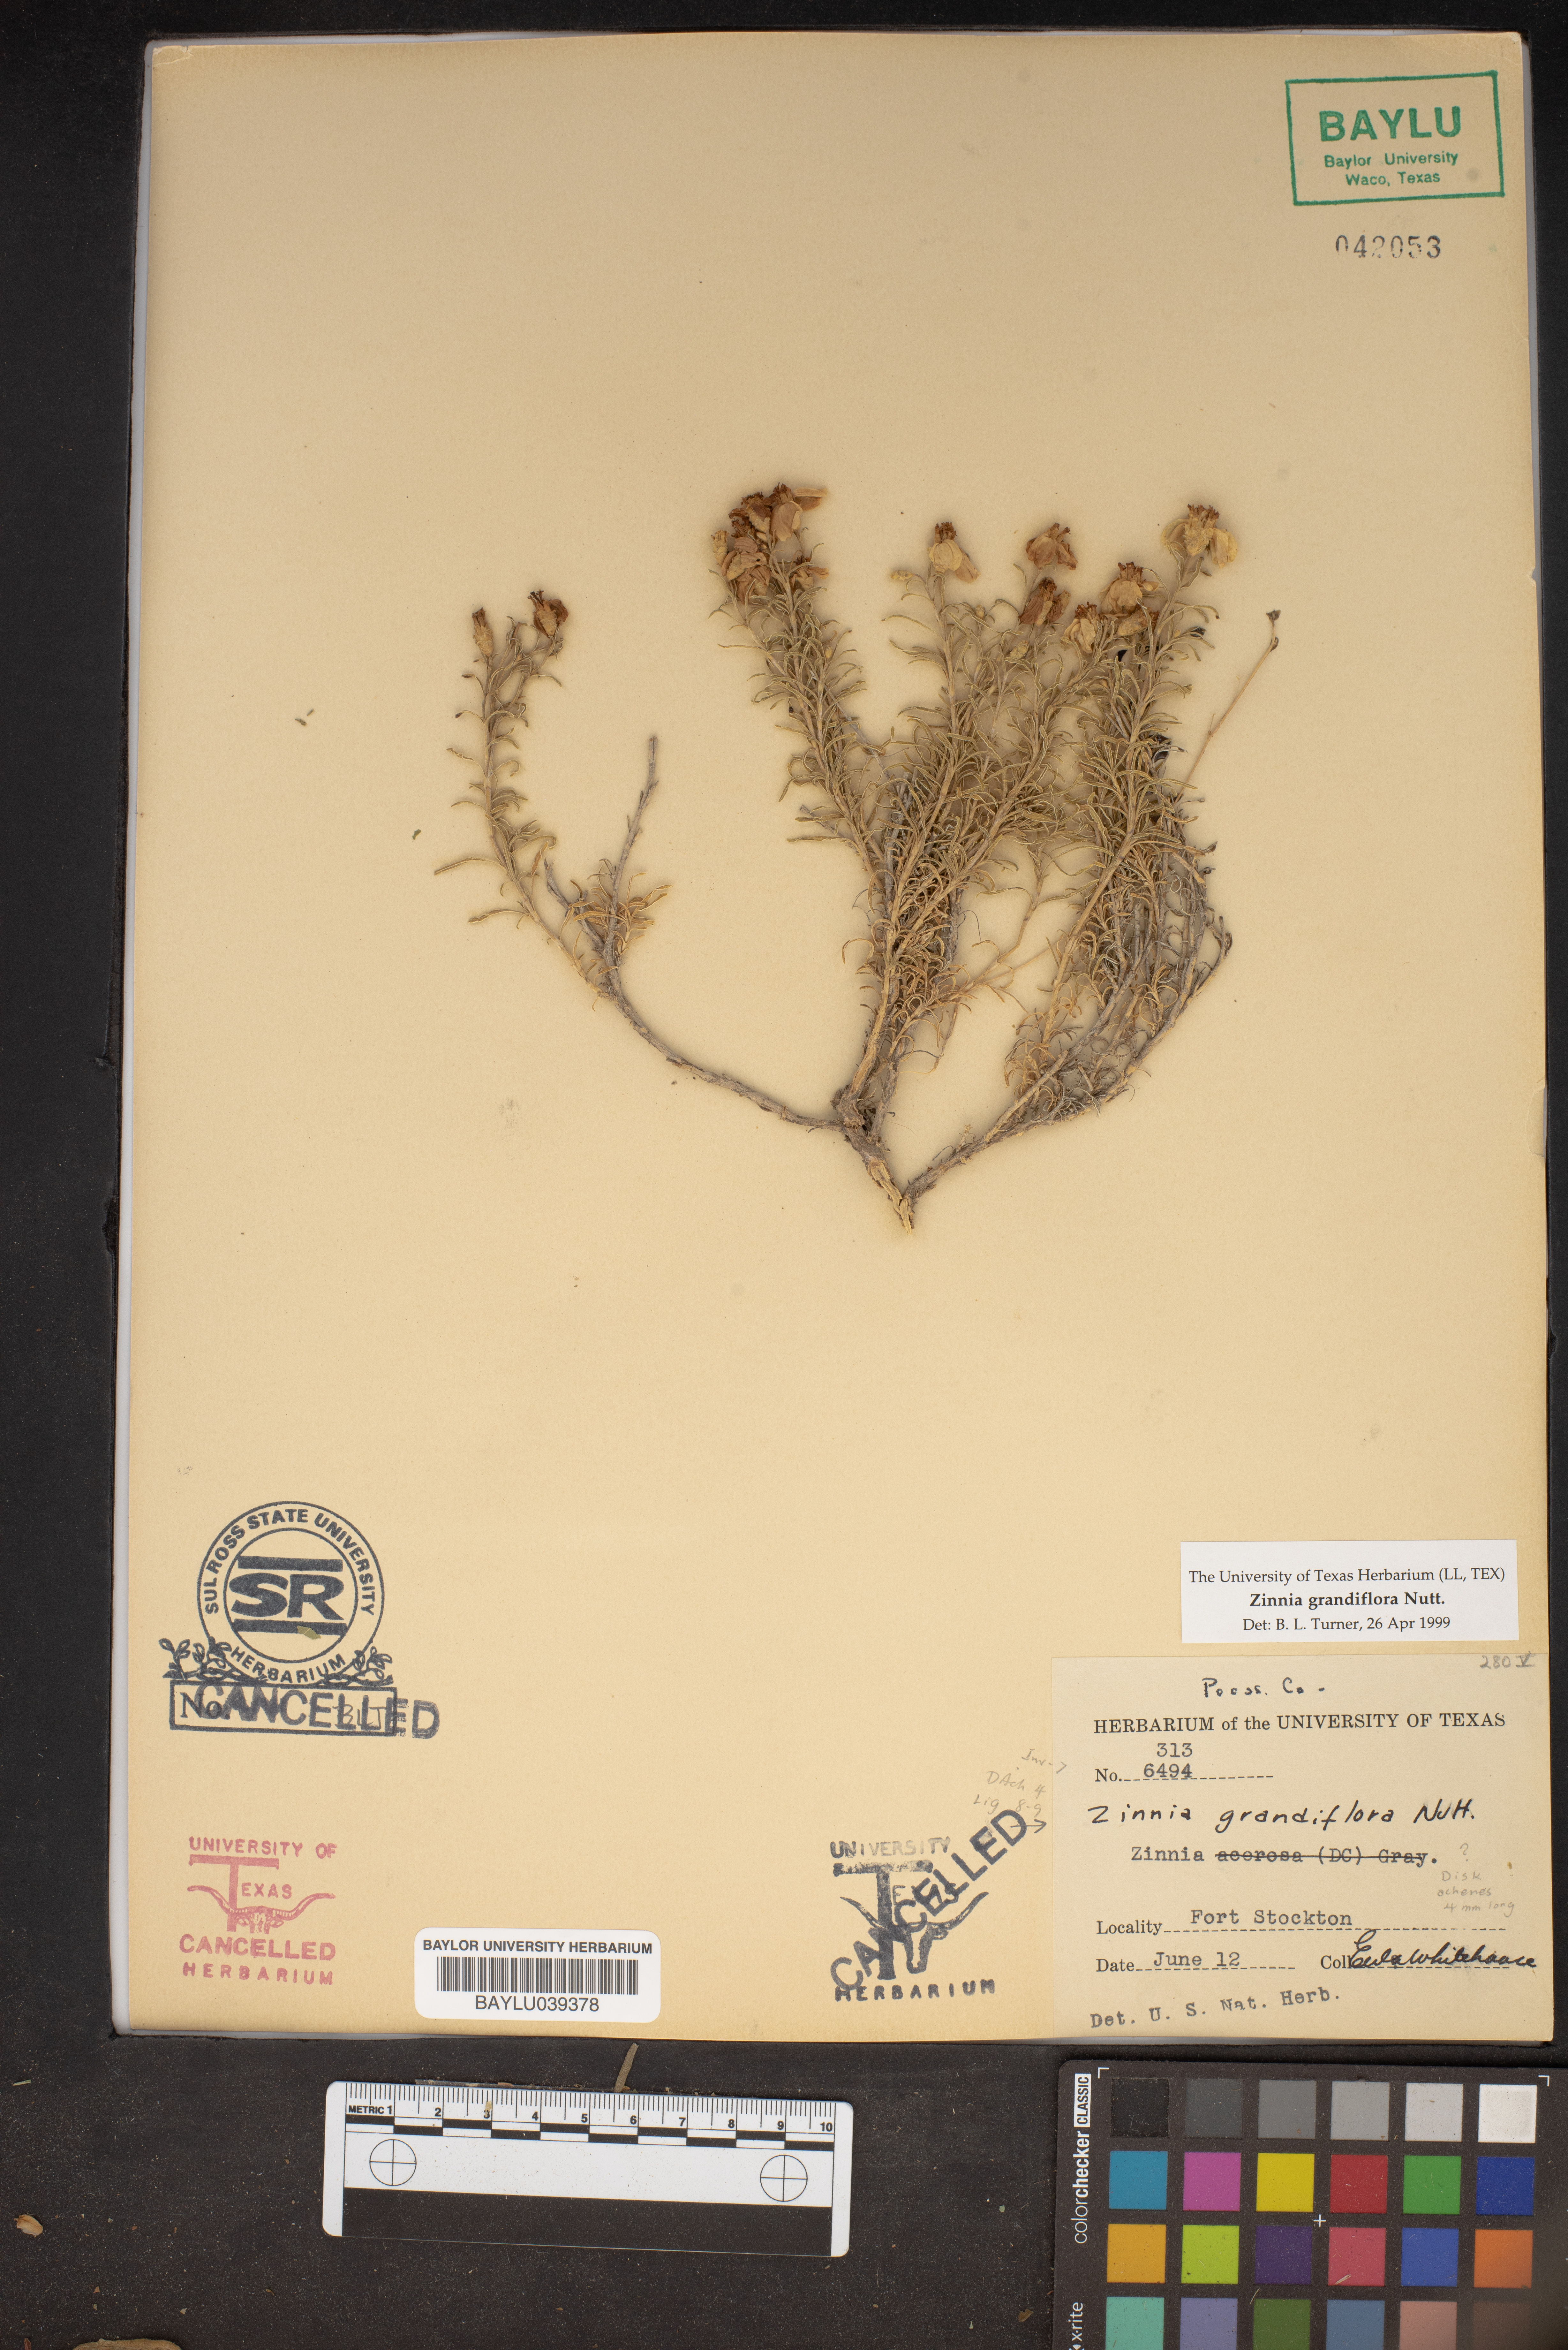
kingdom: Plantae
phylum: Tracheophyta
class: Magnoliopsida
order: Asterales
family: Asteraceae
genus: Zinnia
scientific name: Zinnia grandiflora
